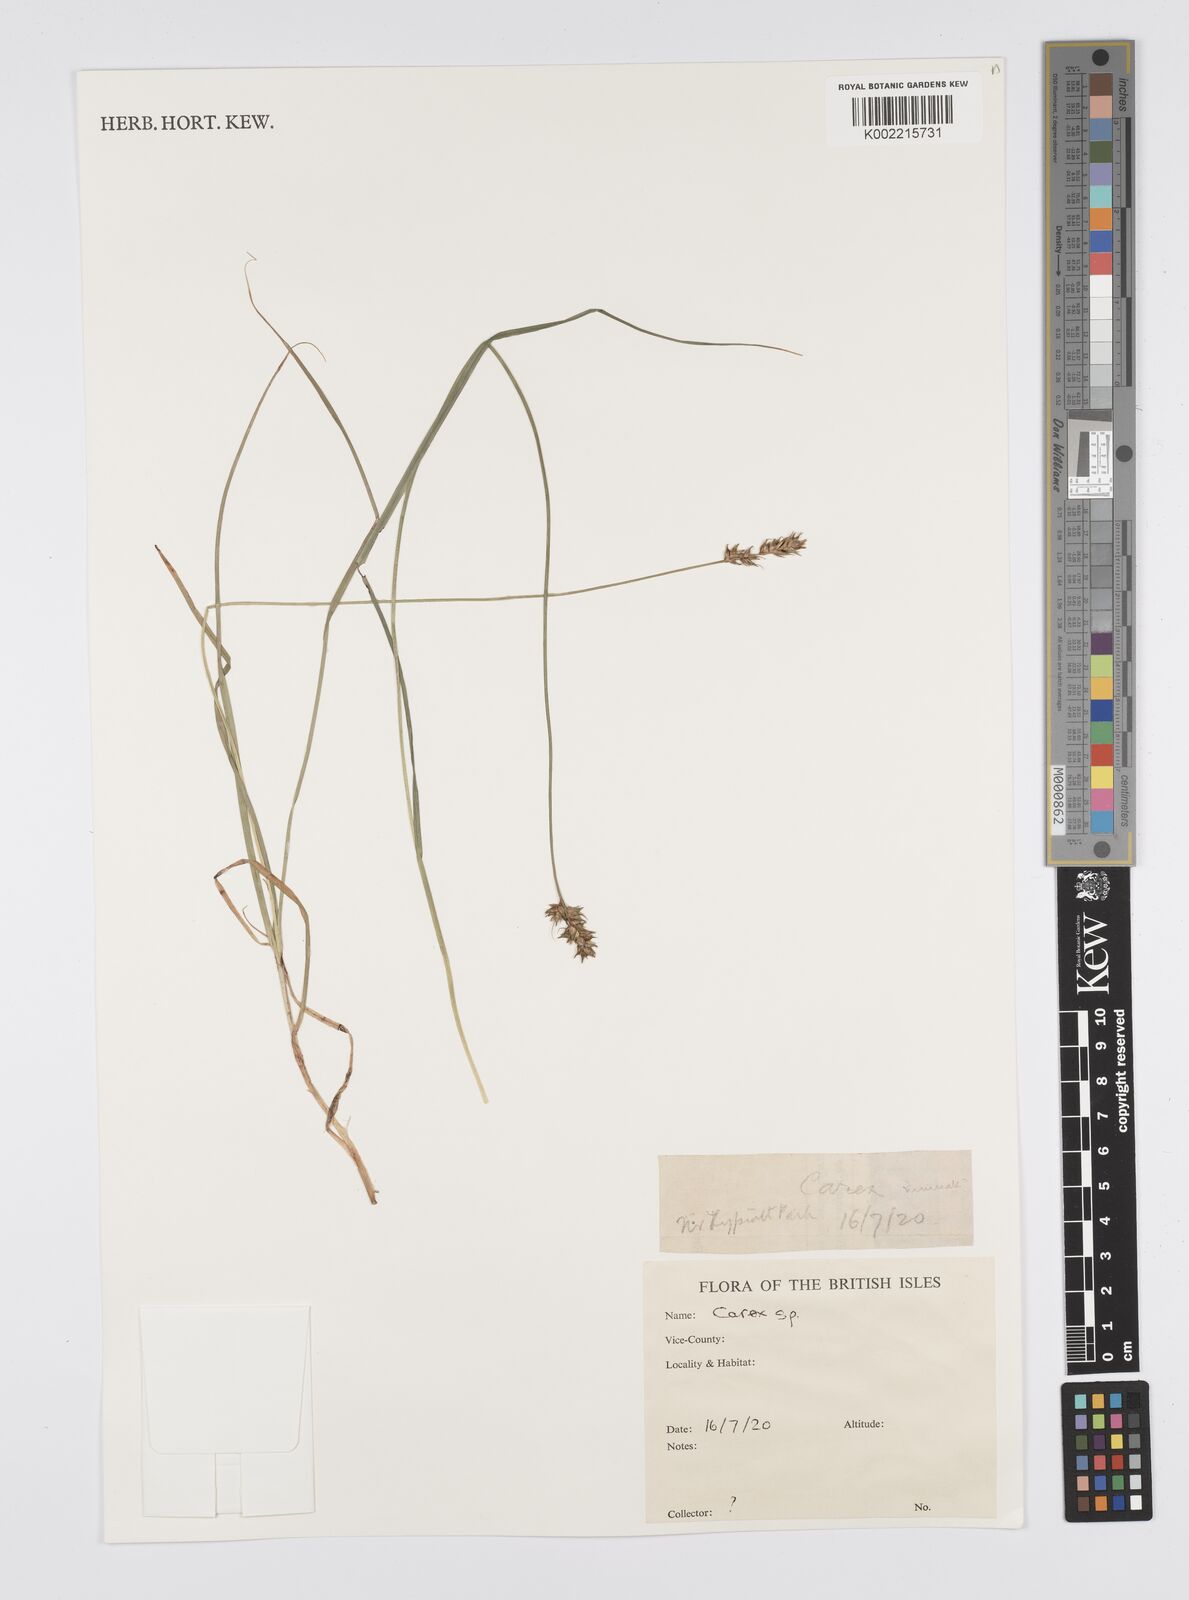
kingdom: Plantae
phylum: Tracheophyta
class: Liliopsida
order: Poales
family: Cyperaceae
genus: Carex
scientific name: Carex
